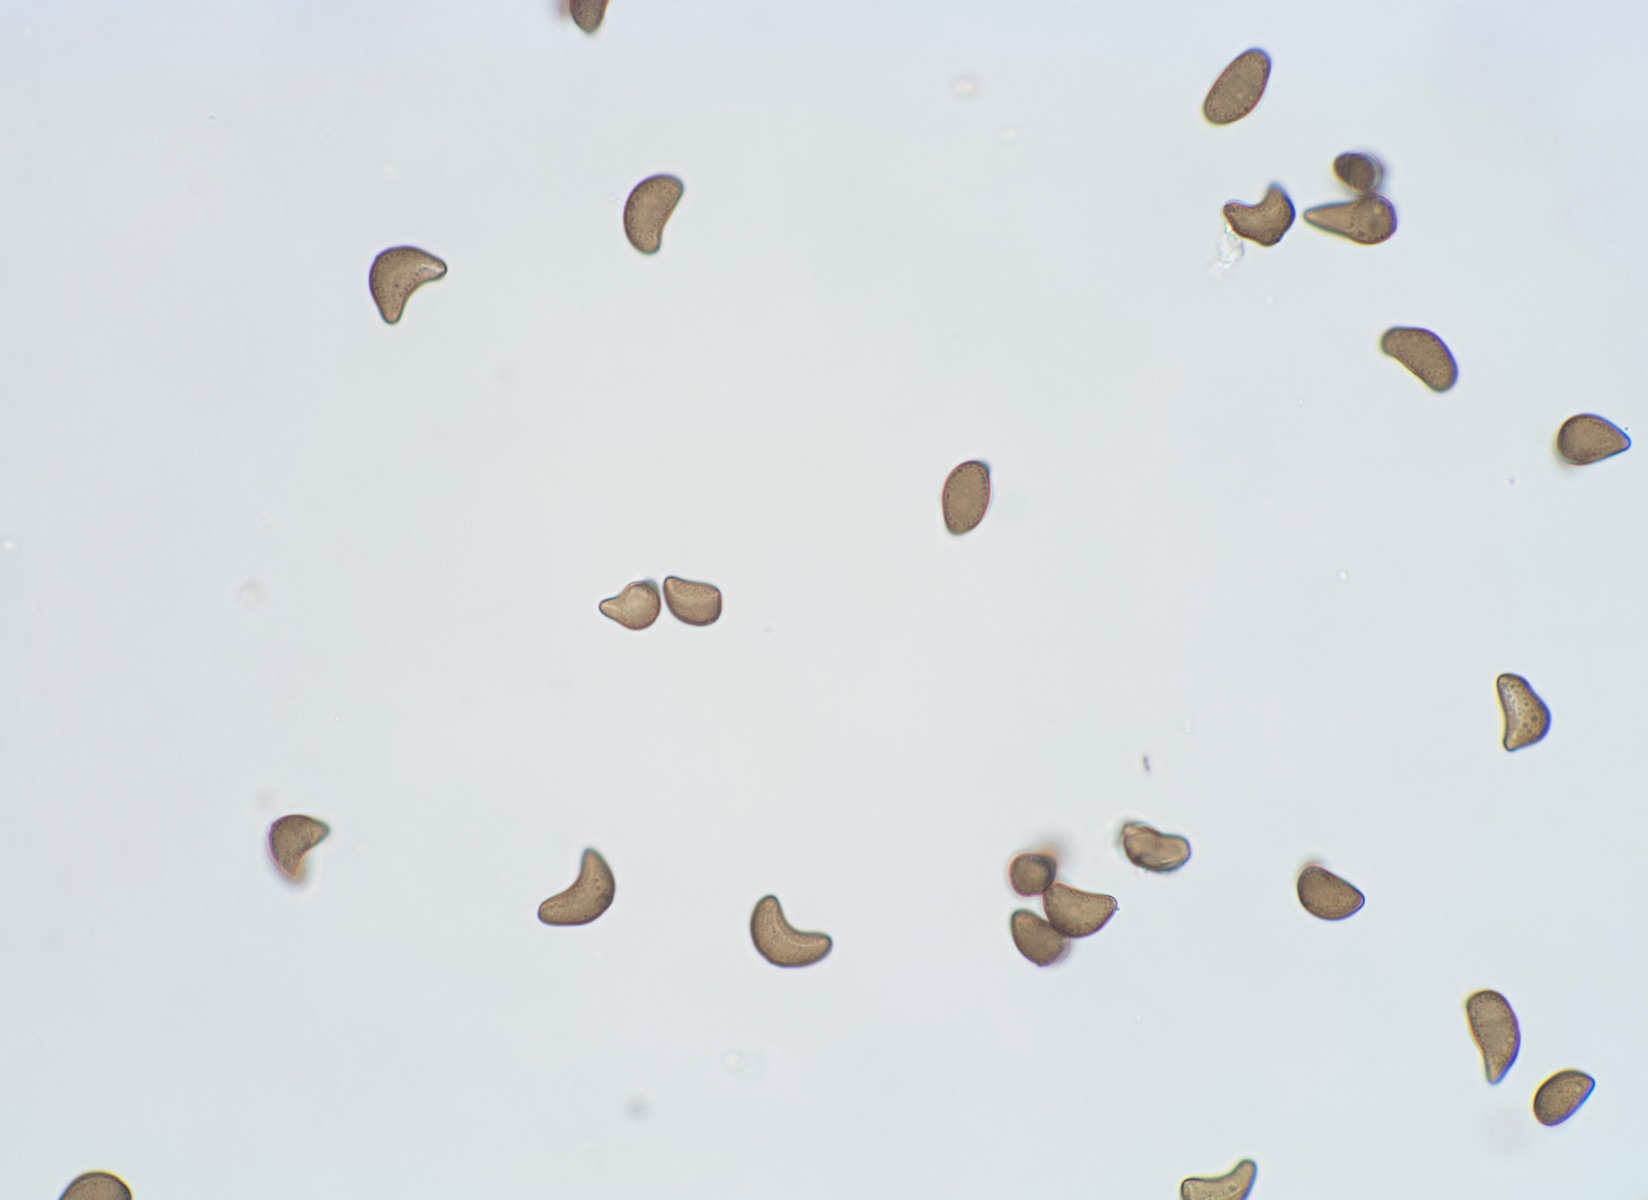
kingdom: Fungi
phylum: Ascomycota
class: Sordariomycetes
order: Xylariales
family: Hyponectriaceae
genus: Physalospora
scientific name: Physalospora scirpi
